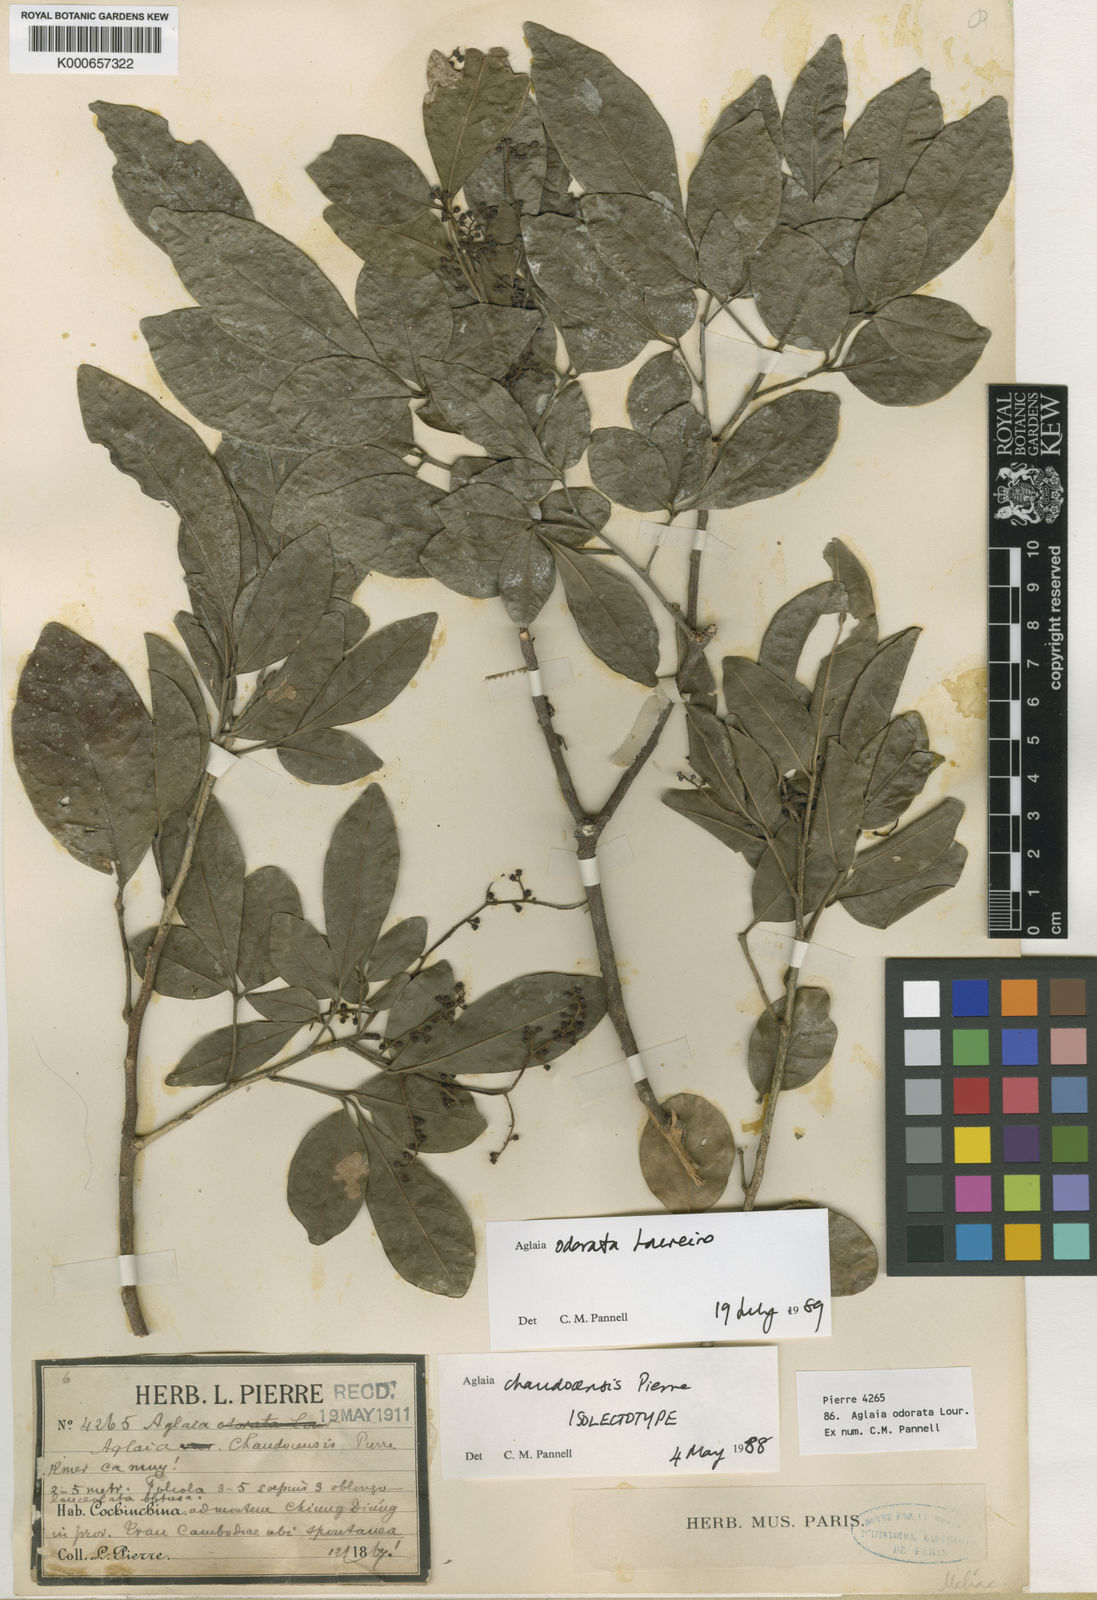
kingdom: Plantae
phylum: Tracheophyta
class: Magnoliopsida
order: Sapindales
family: Meliaceae
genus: Aglaia
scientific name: Aglaia odorata
